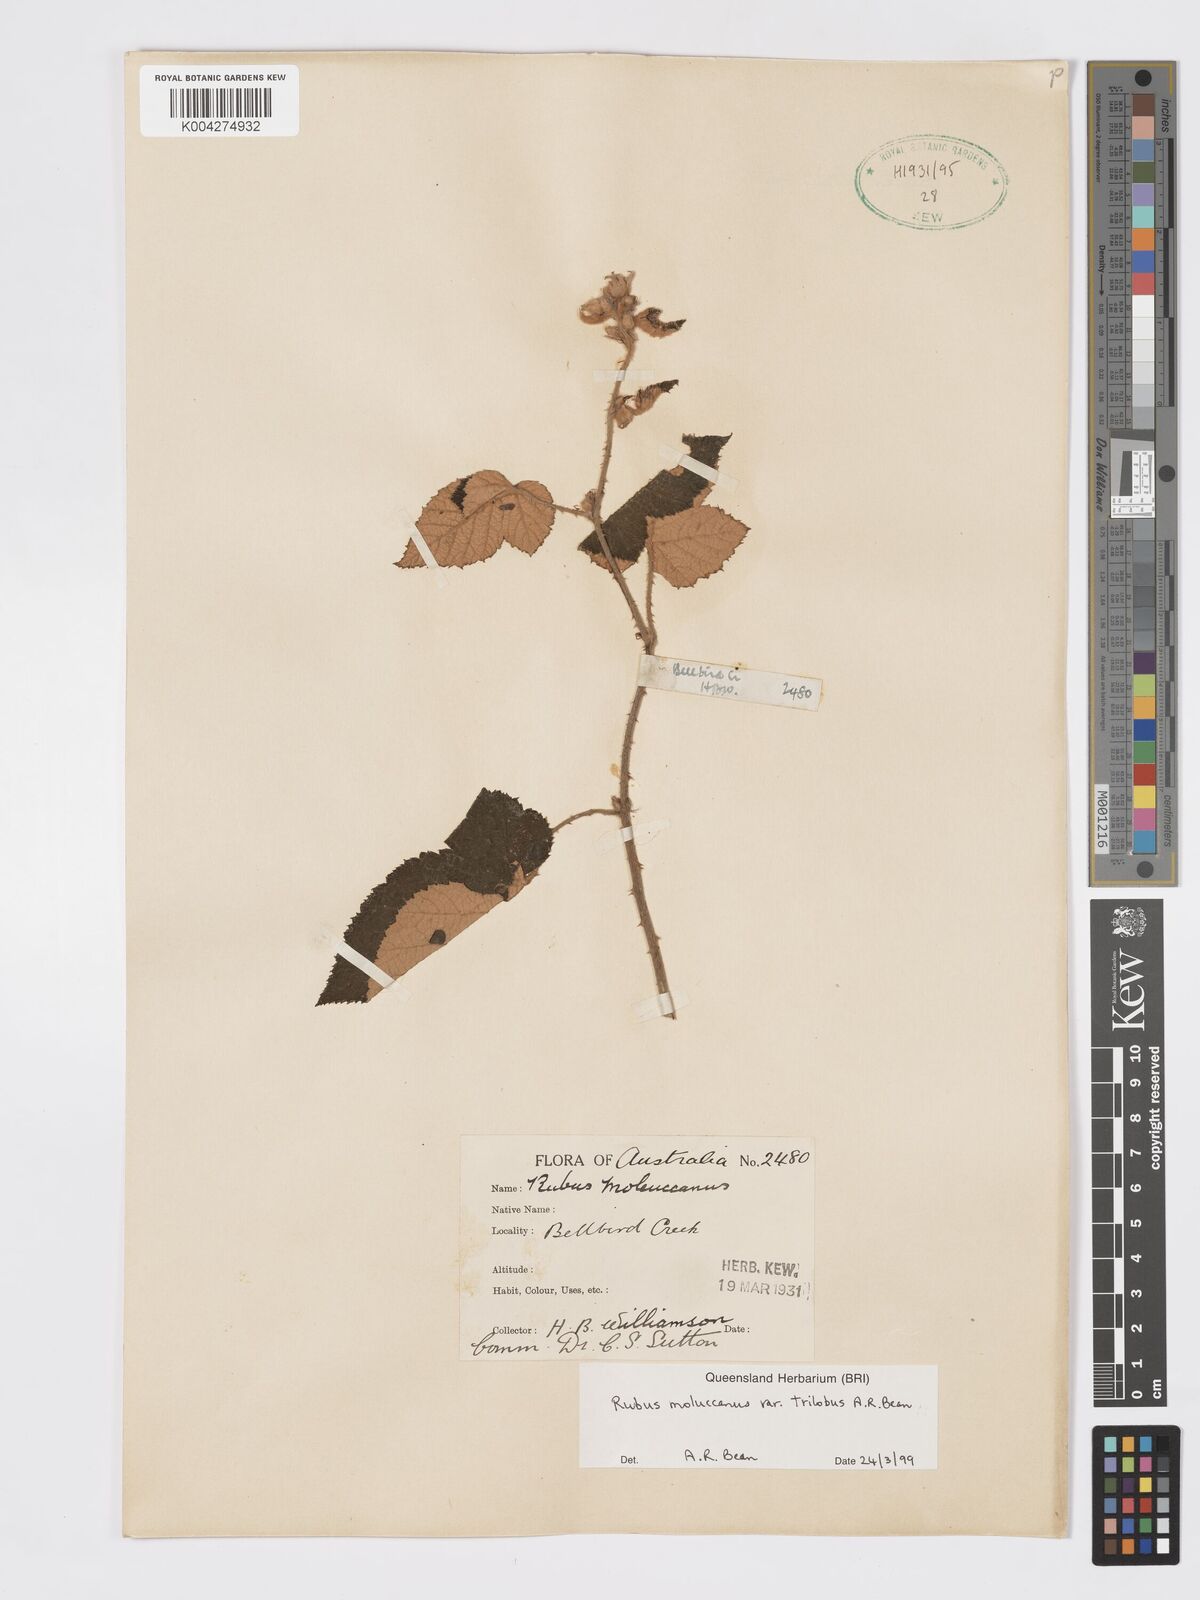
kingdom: Plantae
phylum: Tracheophyta
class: Magnoliopsida
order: Rosales
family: Rosaceae
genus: Rubus
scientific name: Rubus moluccanus
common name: Wild raspberry
